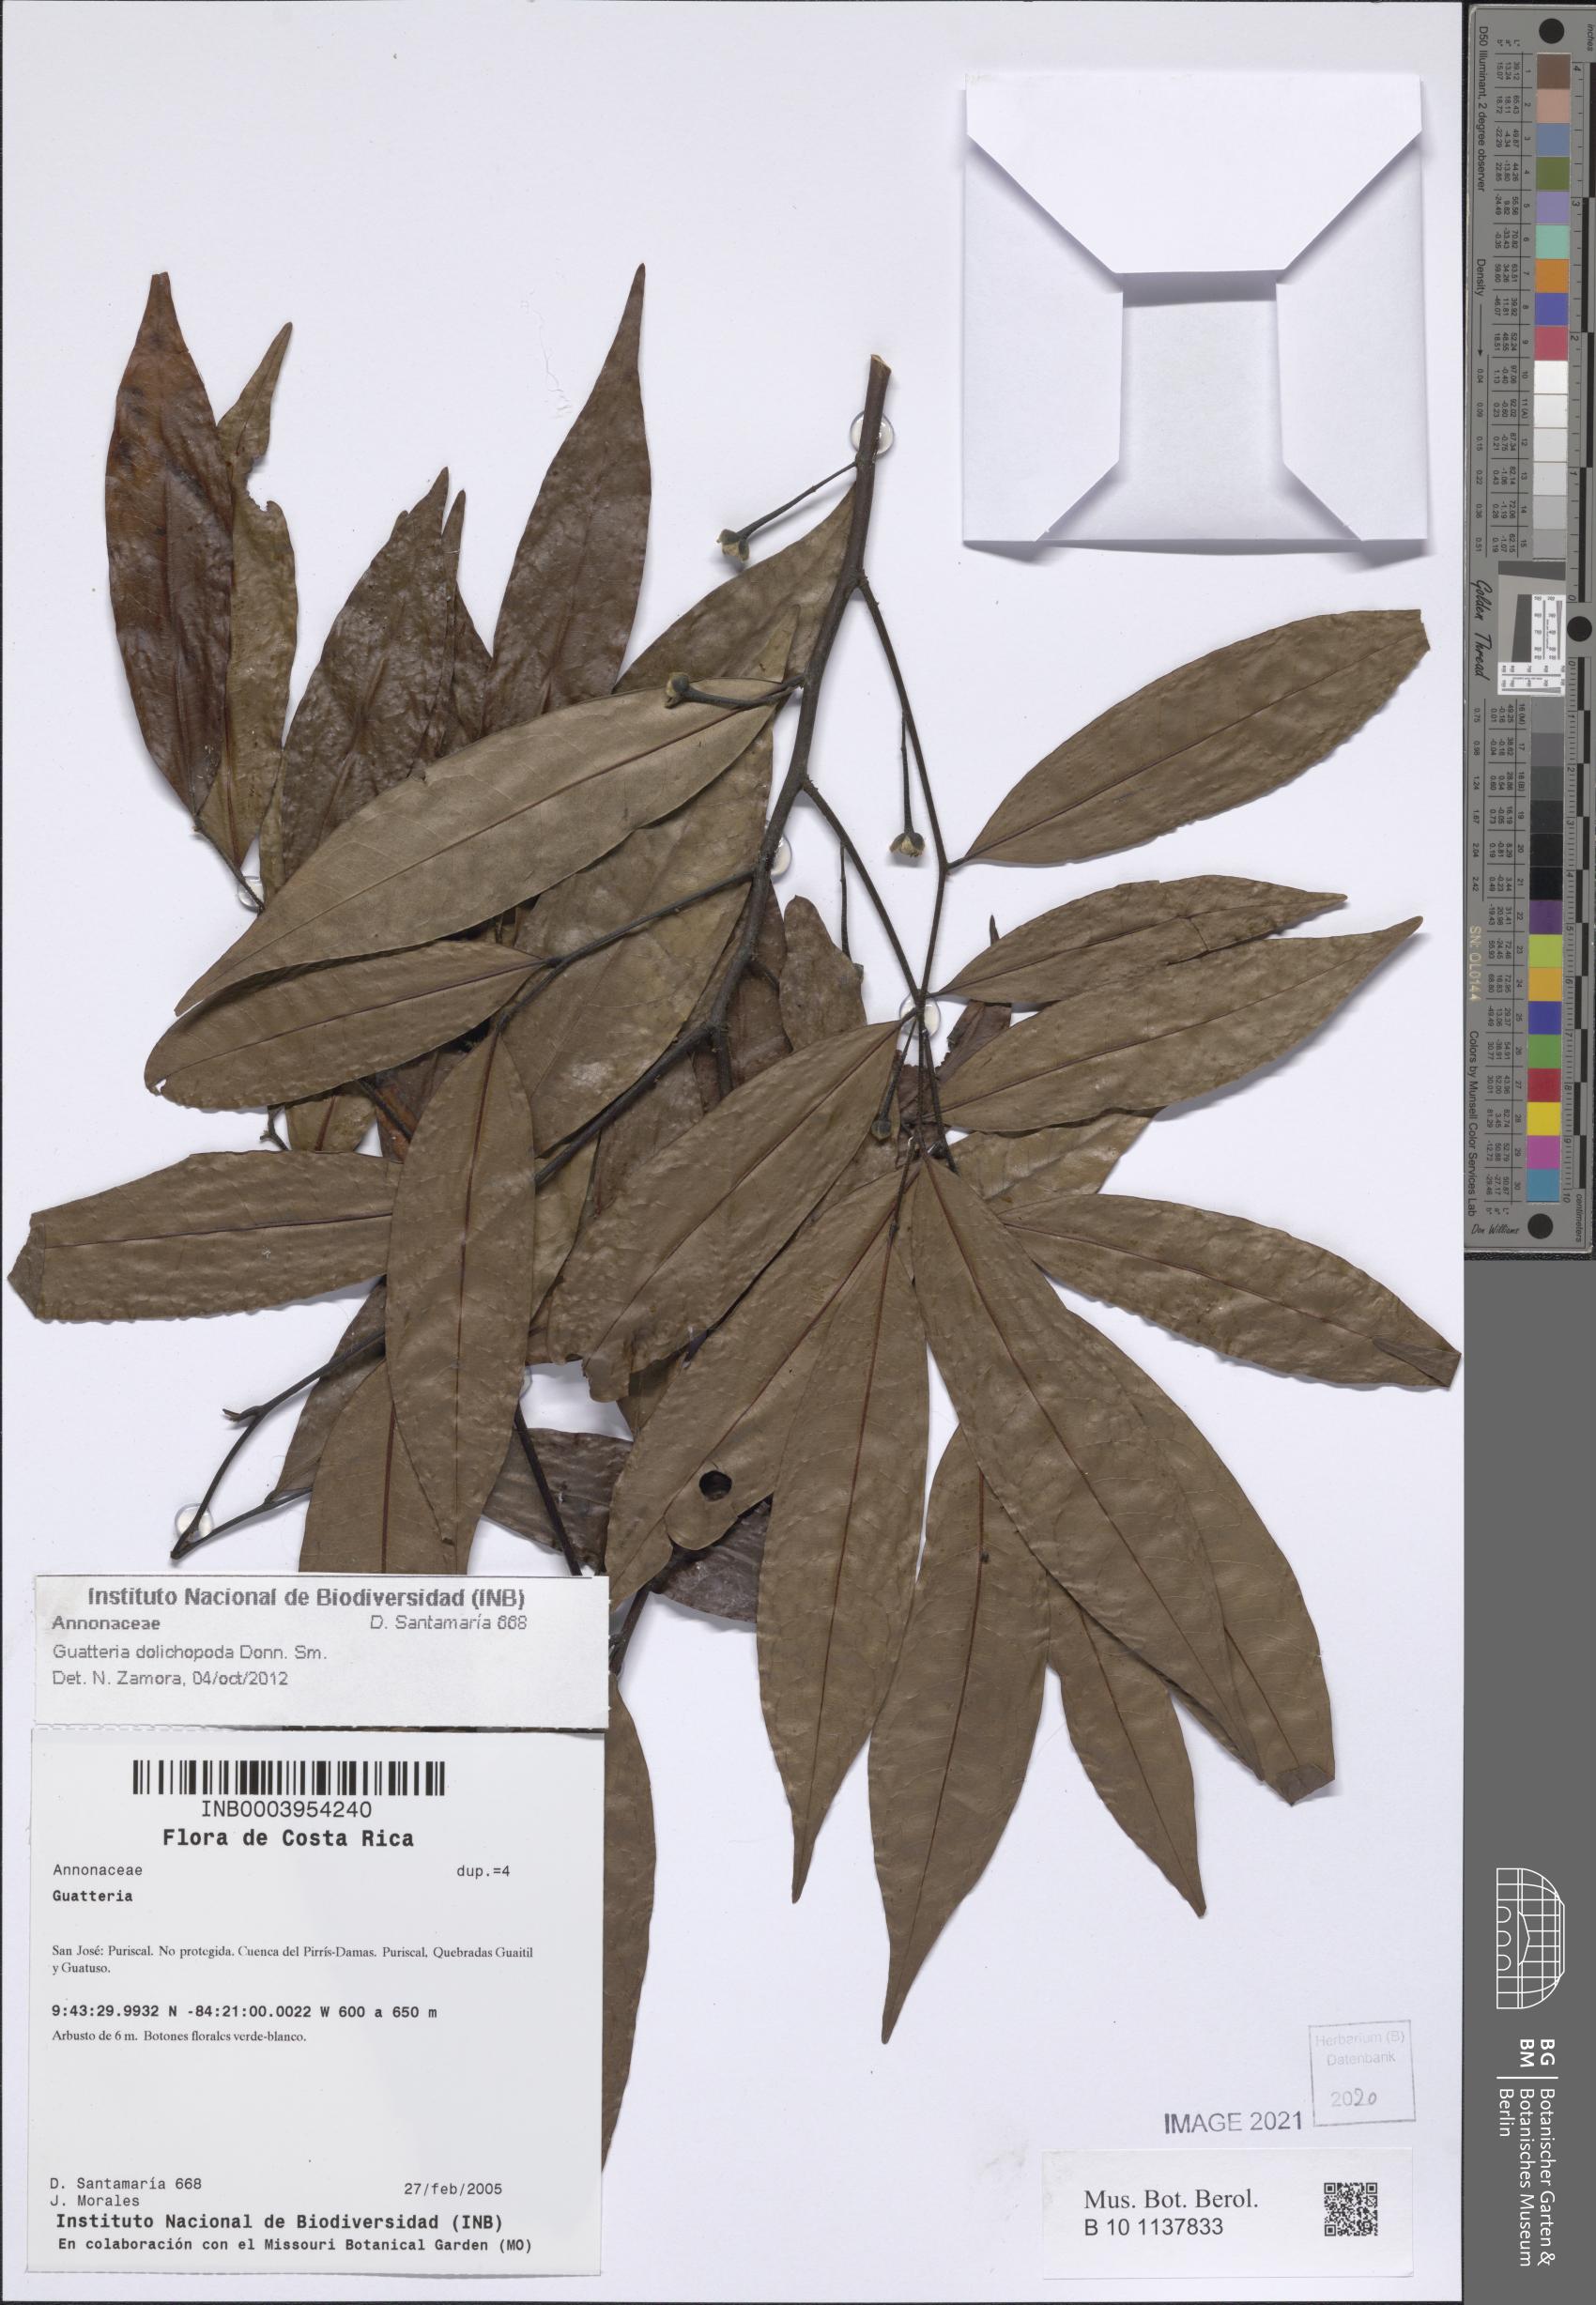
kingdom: Plantae
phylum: Tracheophyta
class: Magnoliopsida
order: Magnoliales
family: Annonaceae
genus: Guatteria
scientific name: Guatteria dolichopoda
